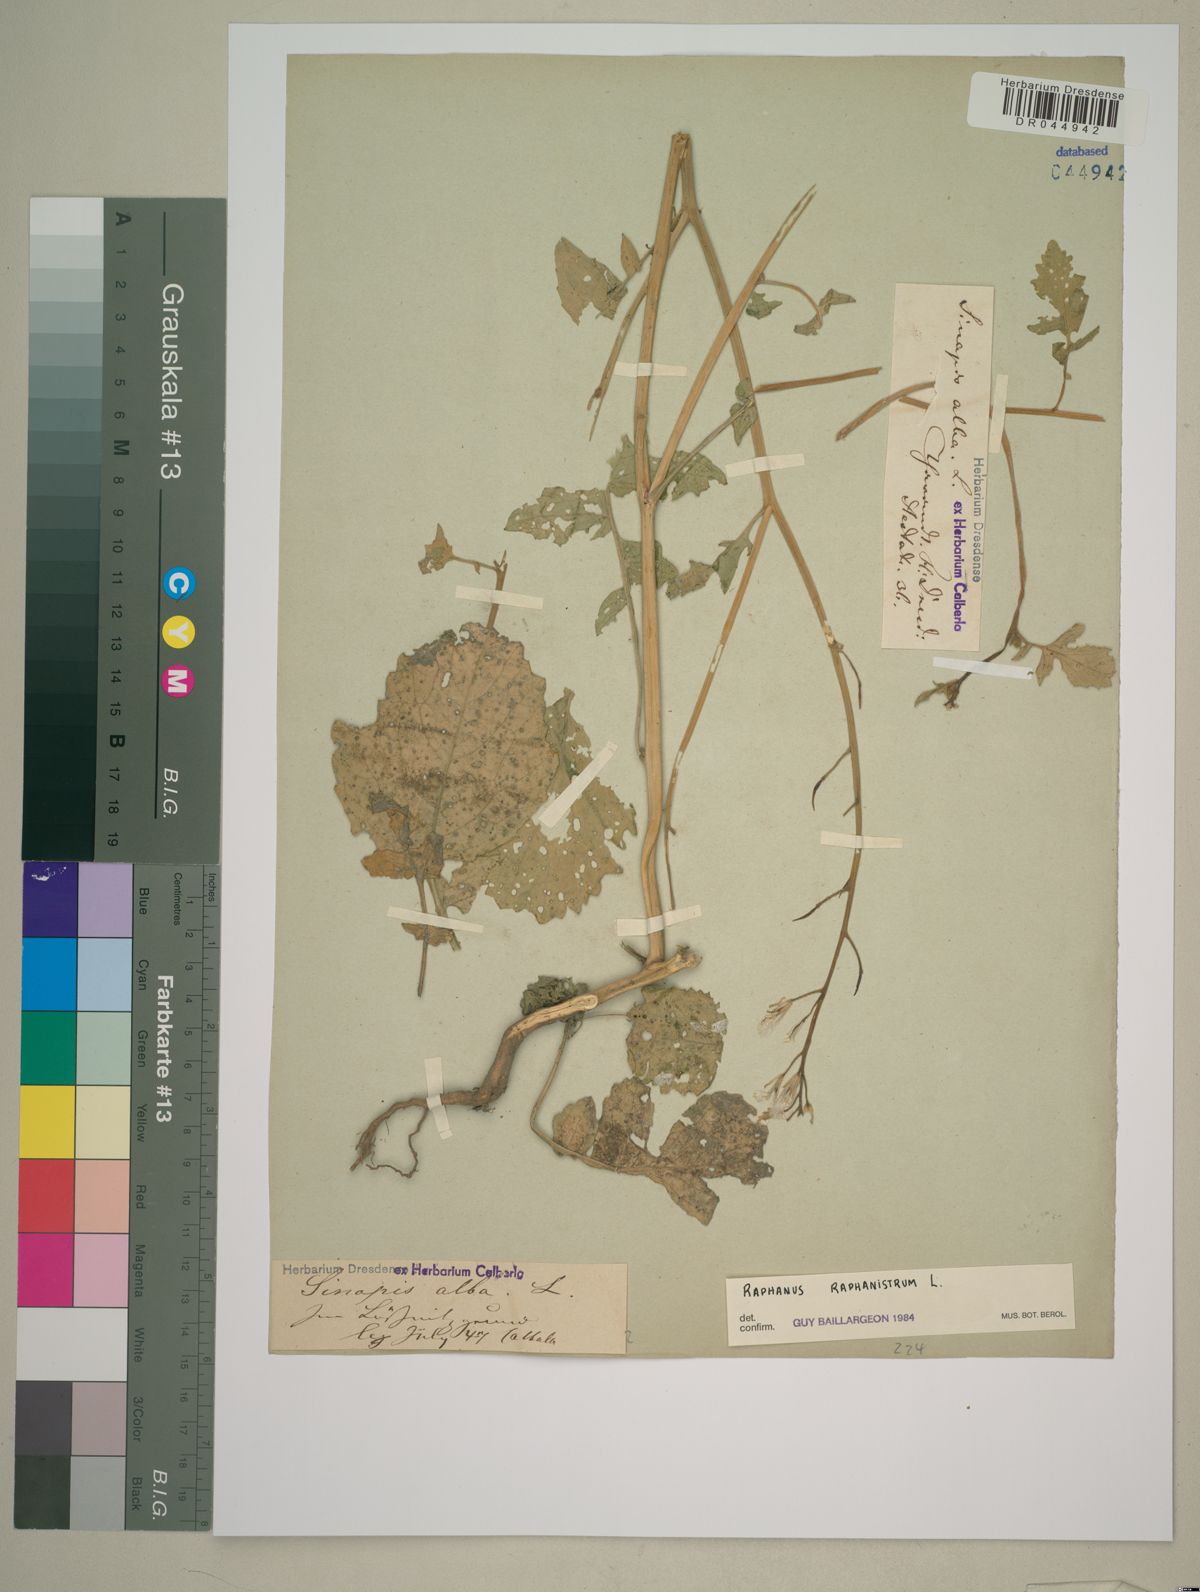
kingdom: Plantae
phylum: Tracheophyta
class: Magnoliopsida
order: Brassicales
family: Brassicaceae
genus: Raphanus
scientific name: Raphanus raphanistrum
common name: Wild radish
